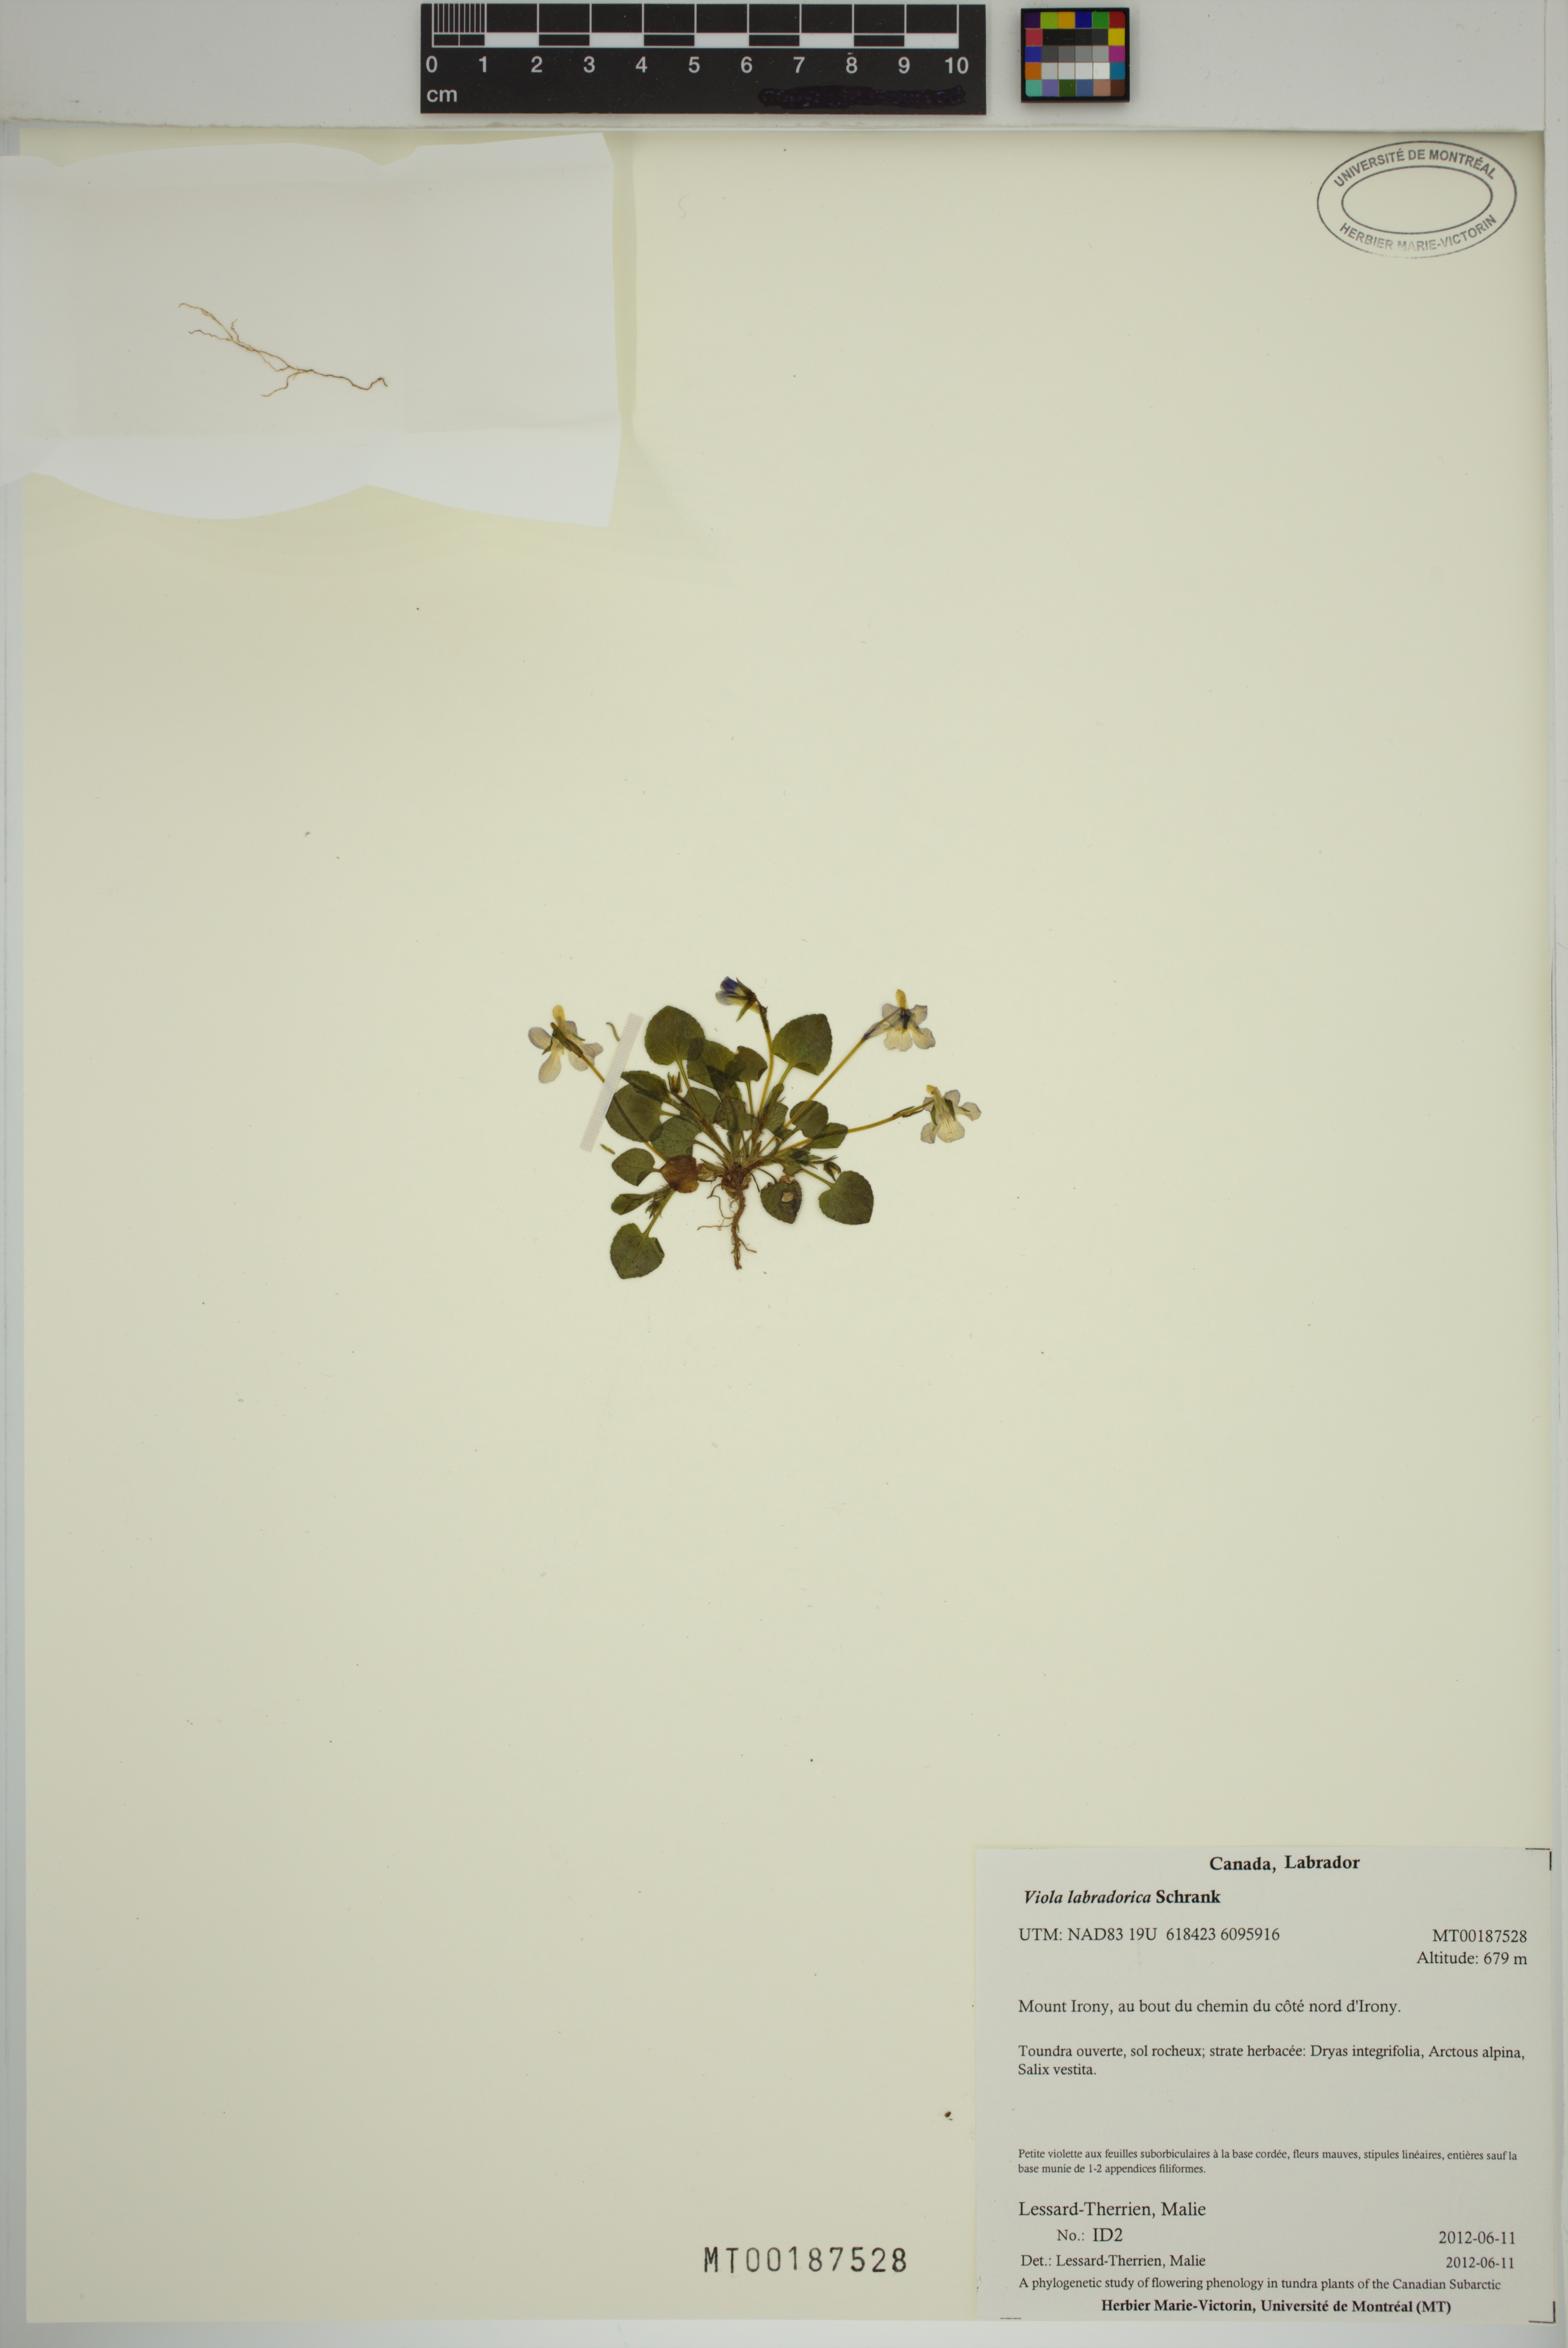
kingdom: Plantae
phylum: Tracheophyta
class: Magnoliopsida
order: Malpighiales
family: Violaceae
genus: Viola
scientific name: Viola labradorica
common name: Labrador violet
